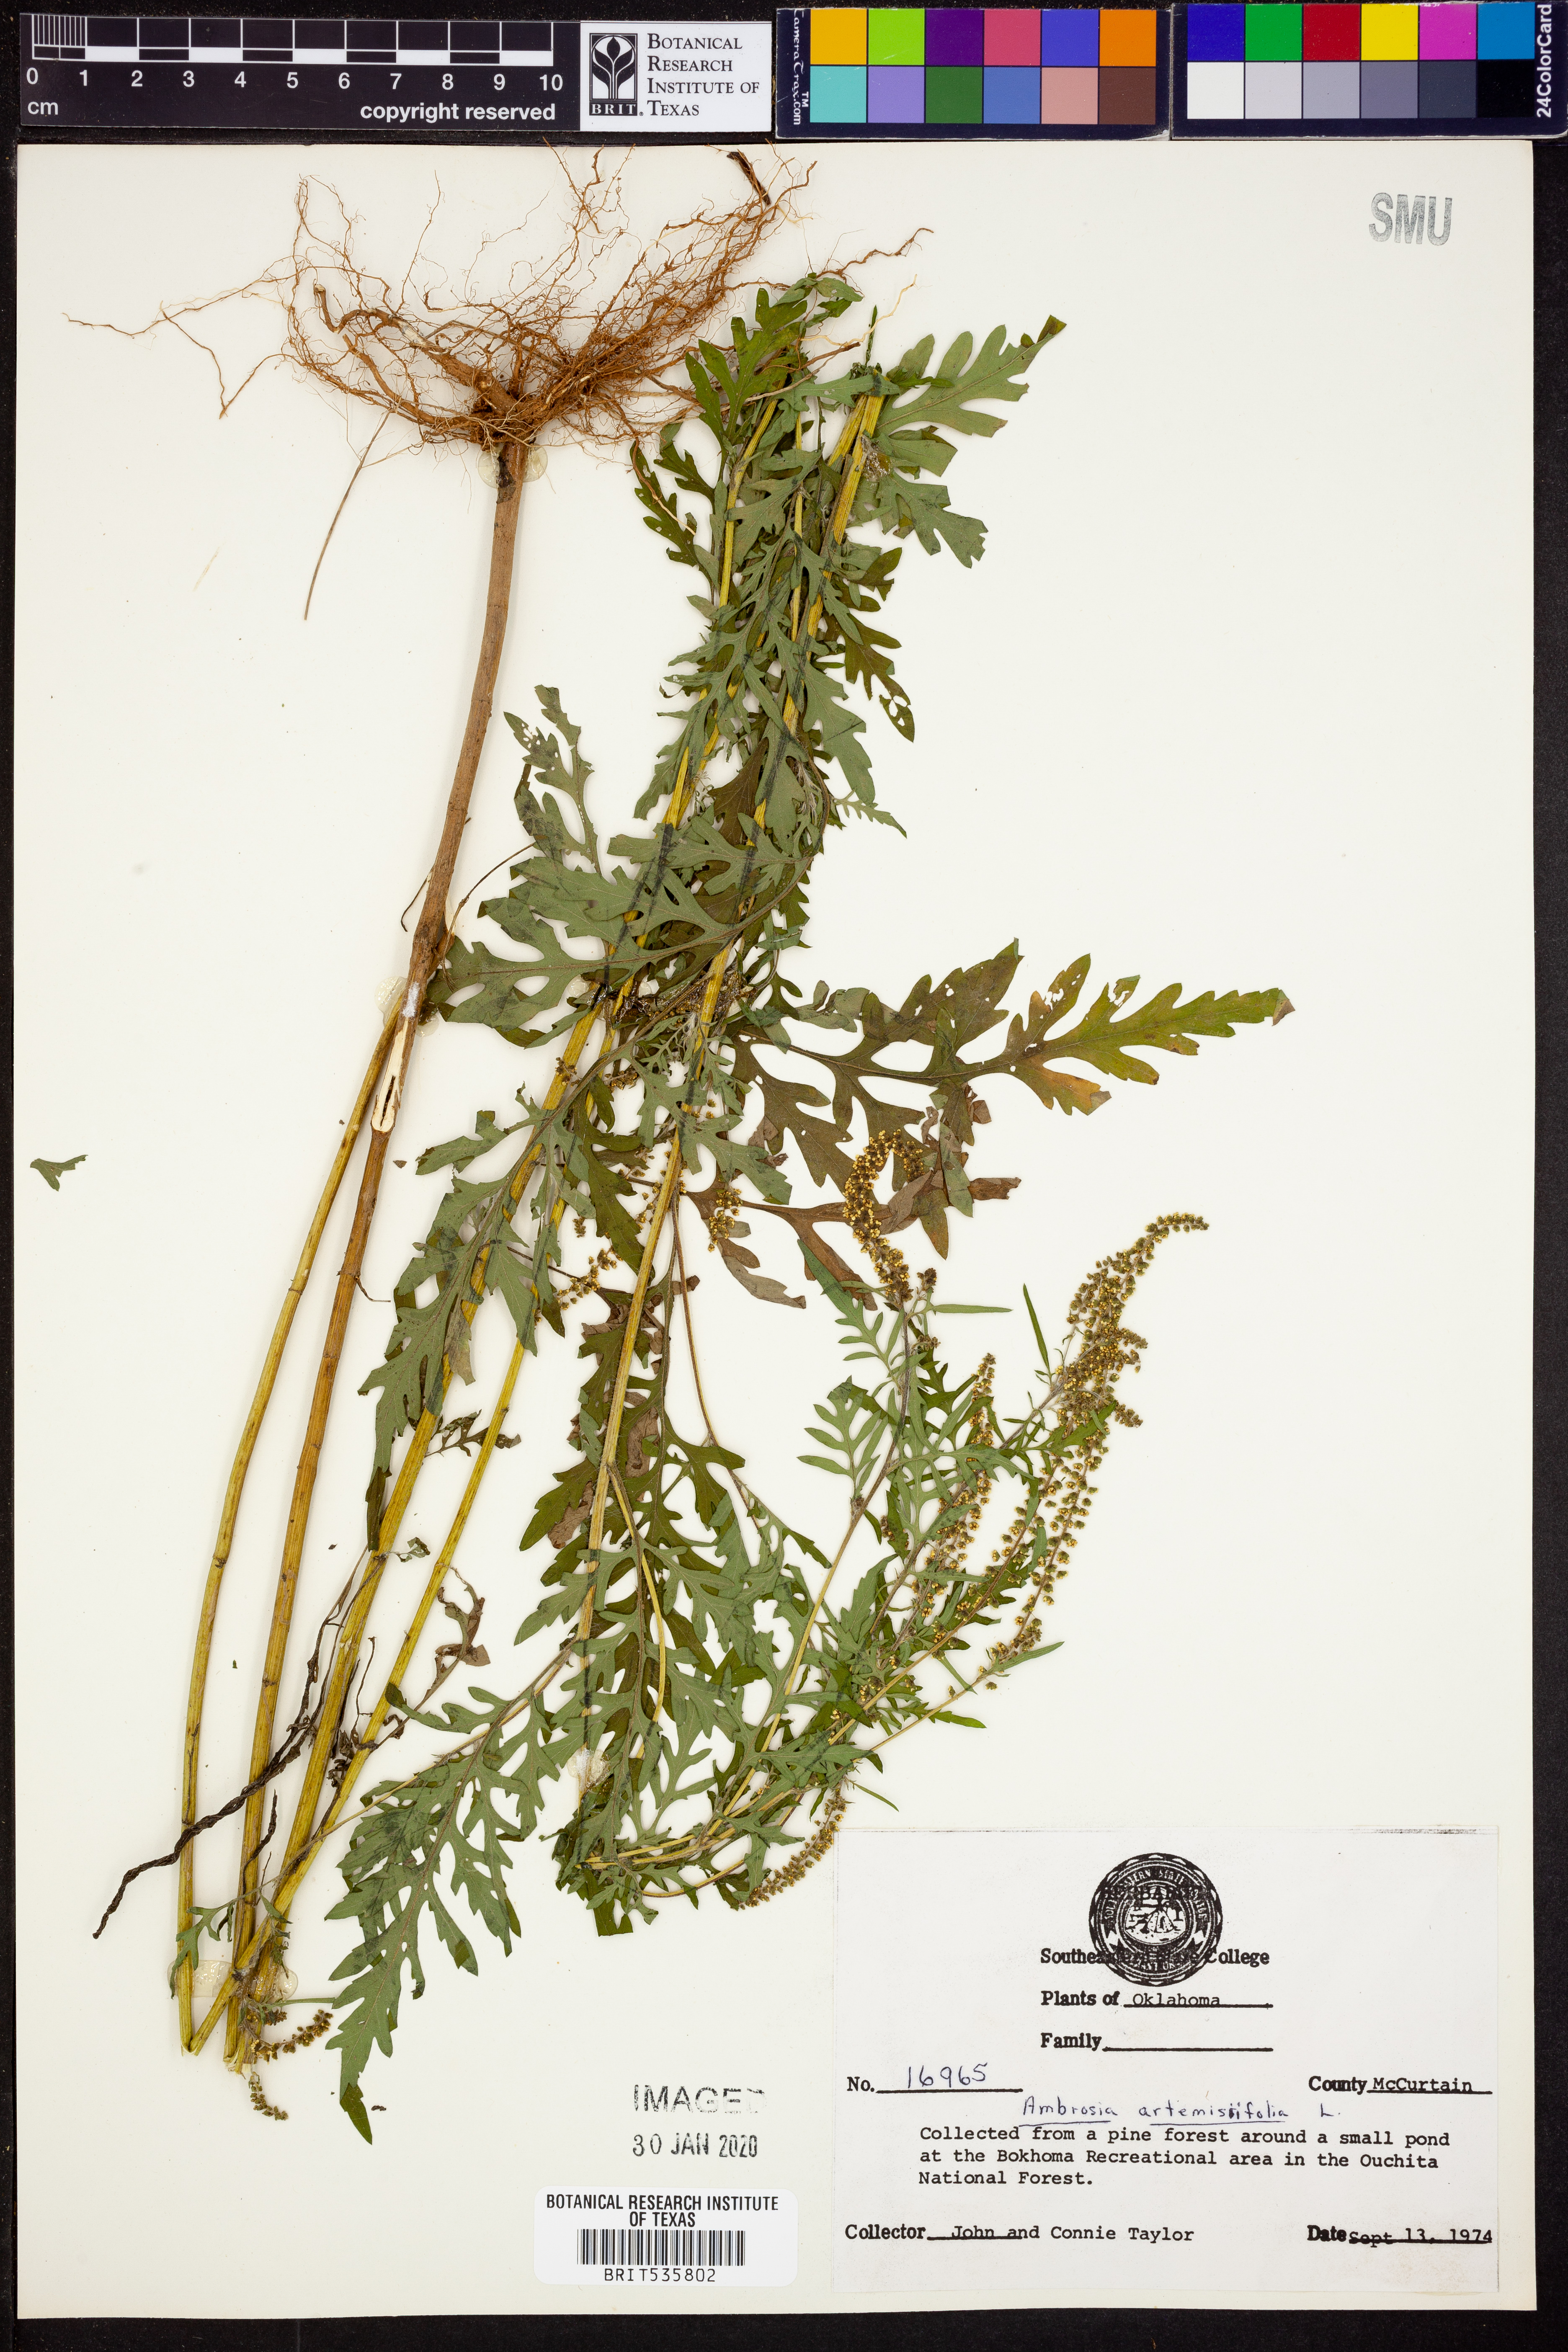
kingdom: Plantae
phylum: Tracheophyta
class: Magnoliopsida
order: Asterales
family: Asteraceae
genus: Ambrosia
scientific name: Ambrosia artemisiifolia
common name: Annual ragweed
